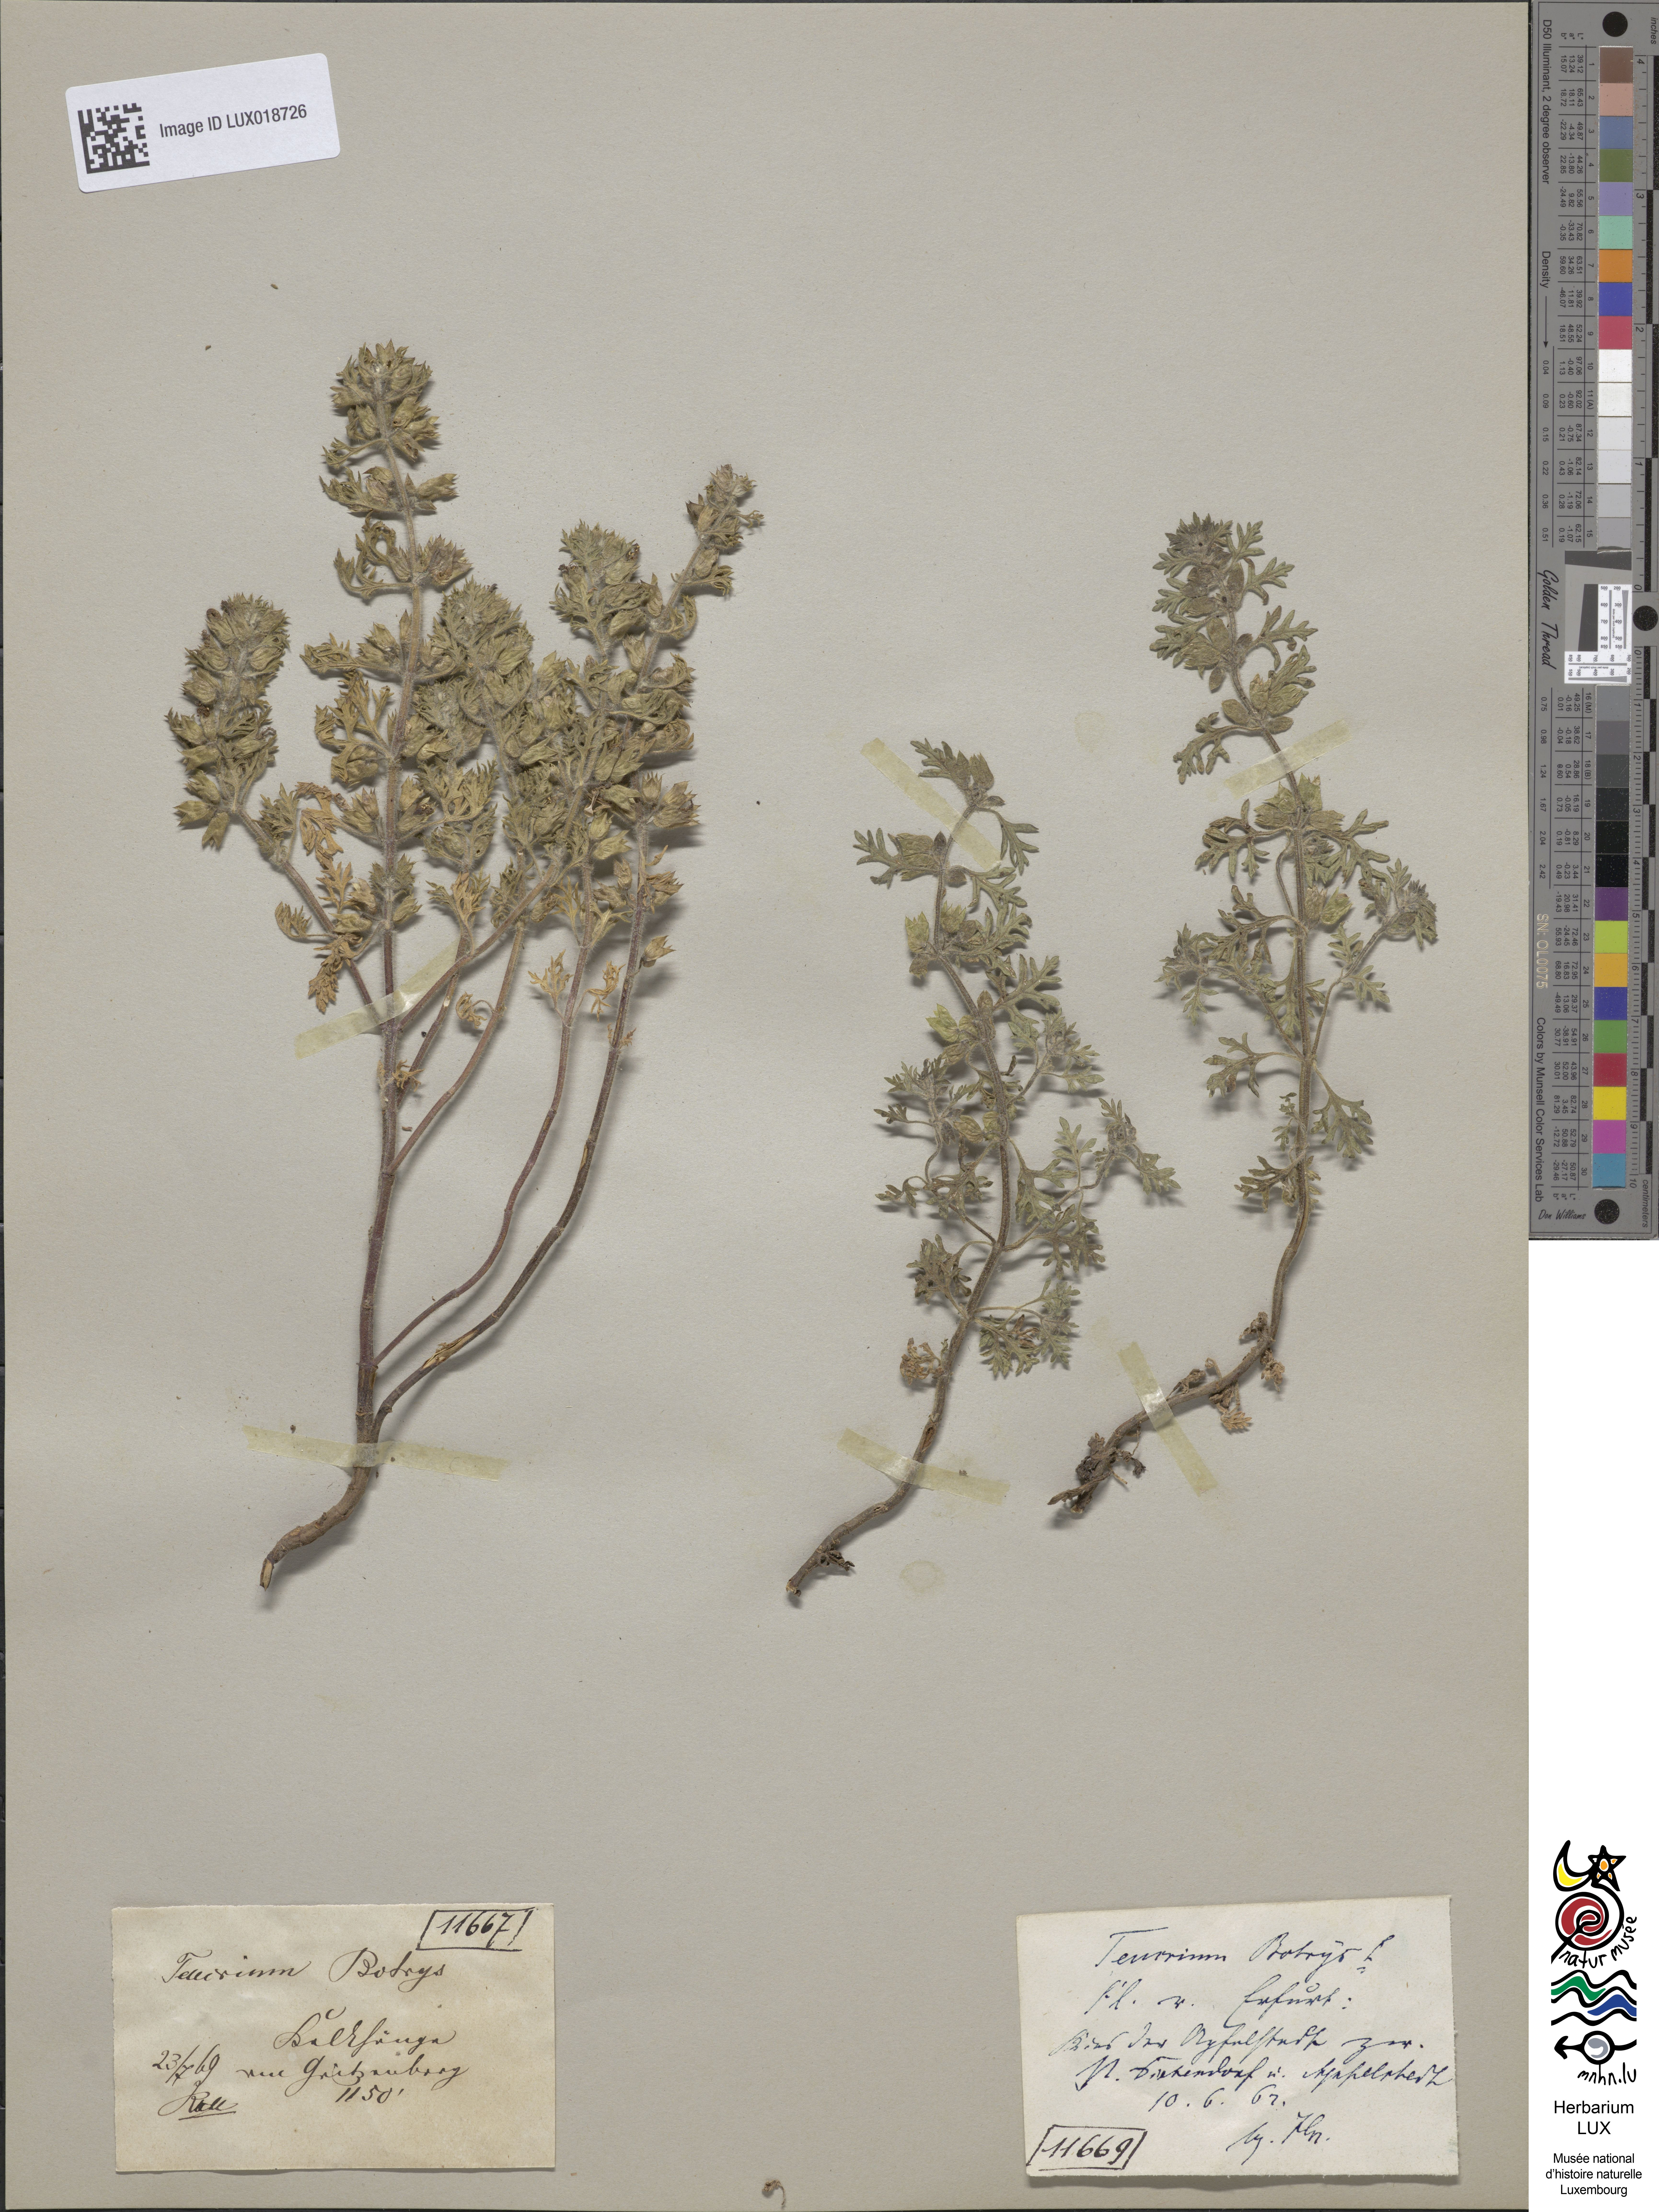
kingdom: Plantae
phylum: Tracheophyta
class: Magnoliopsida
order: Lamiales
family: Lamiaceae
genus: Teucrium
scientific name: Teucrium botrys
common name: Cut-leaved germander
